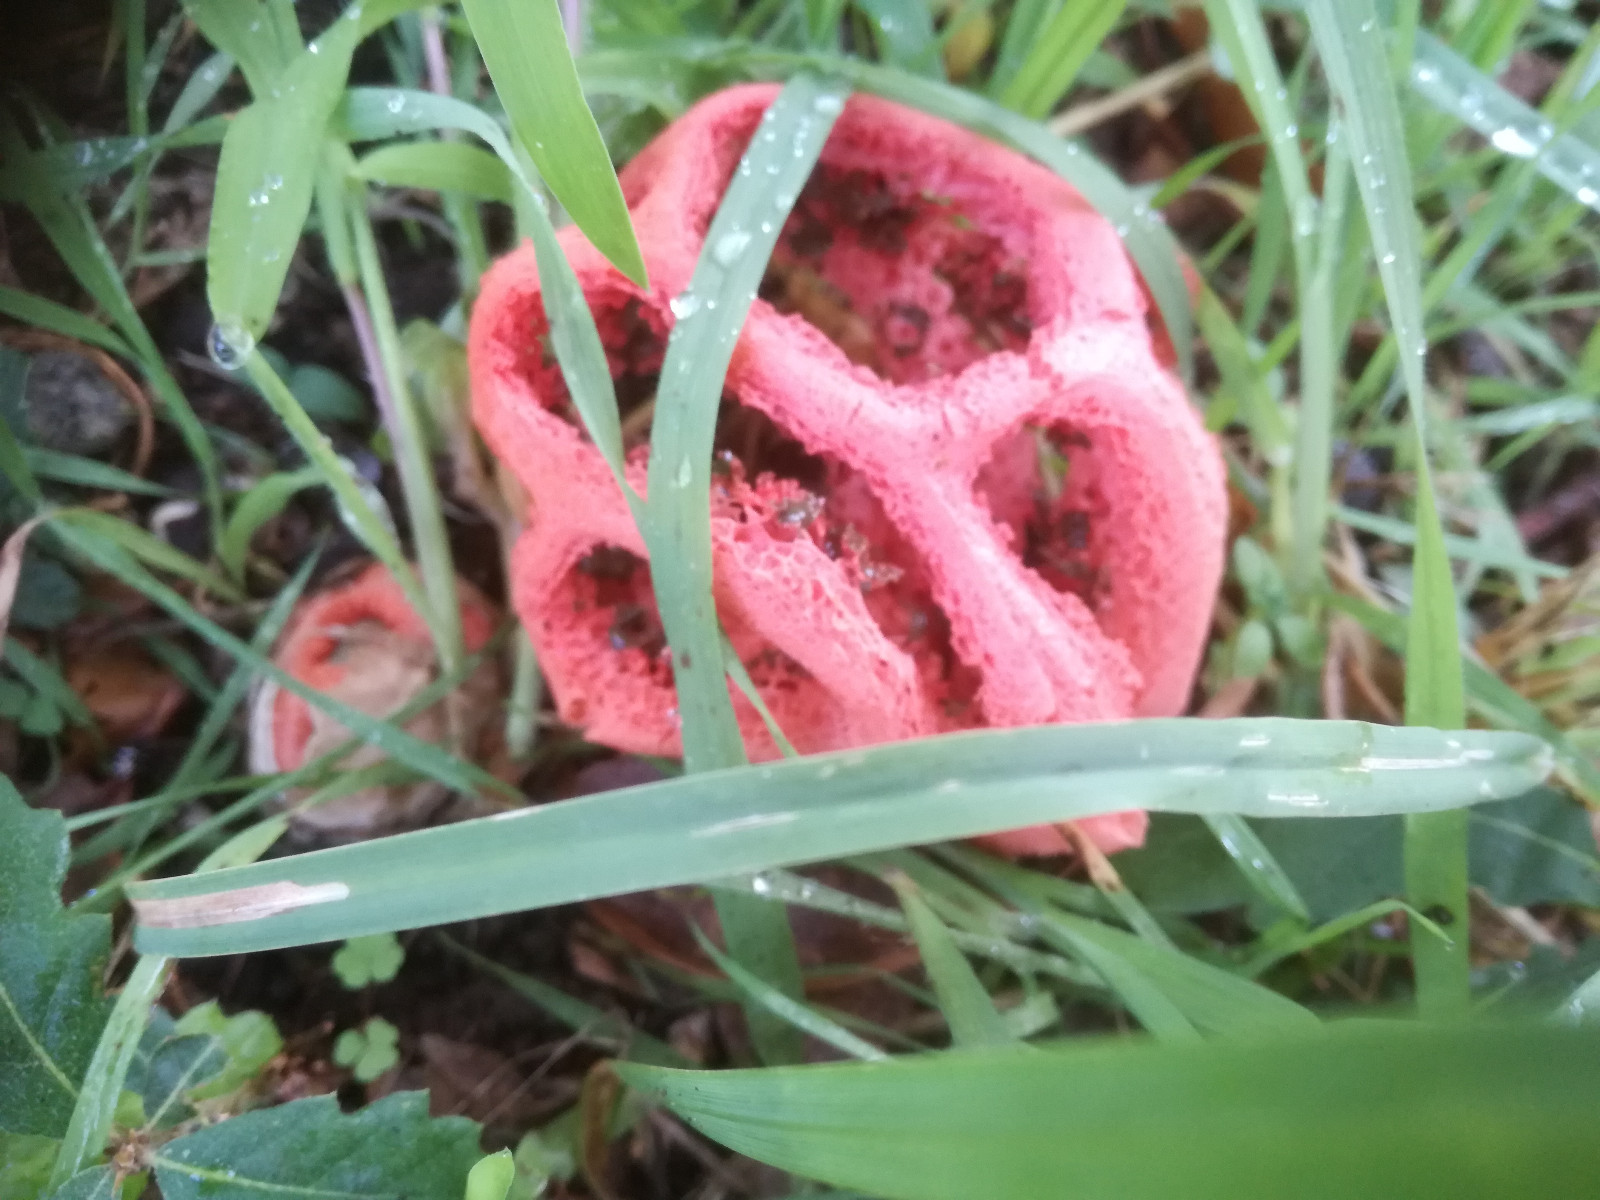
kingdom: Fungi
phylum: Basidiomycota
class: Agaricomycetes
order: Phallales
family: Phallaceae
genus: Clathrus
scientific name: Clathrus ruber
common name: rød gitterkugle
